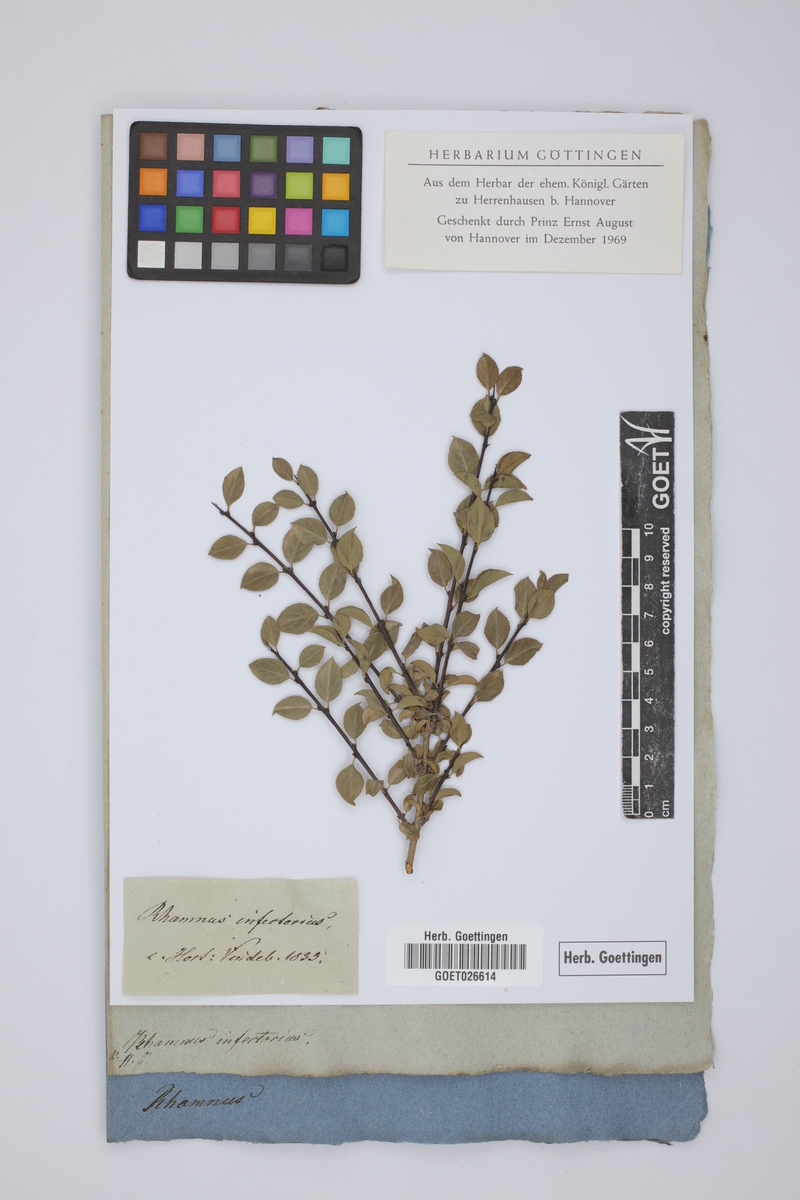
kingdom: Plantae
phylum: Tracheophyta
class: Magnoliopsida
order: Rosales
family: Rhamnaceae
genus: Rhamnus
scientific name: Rhamnus infectoria
